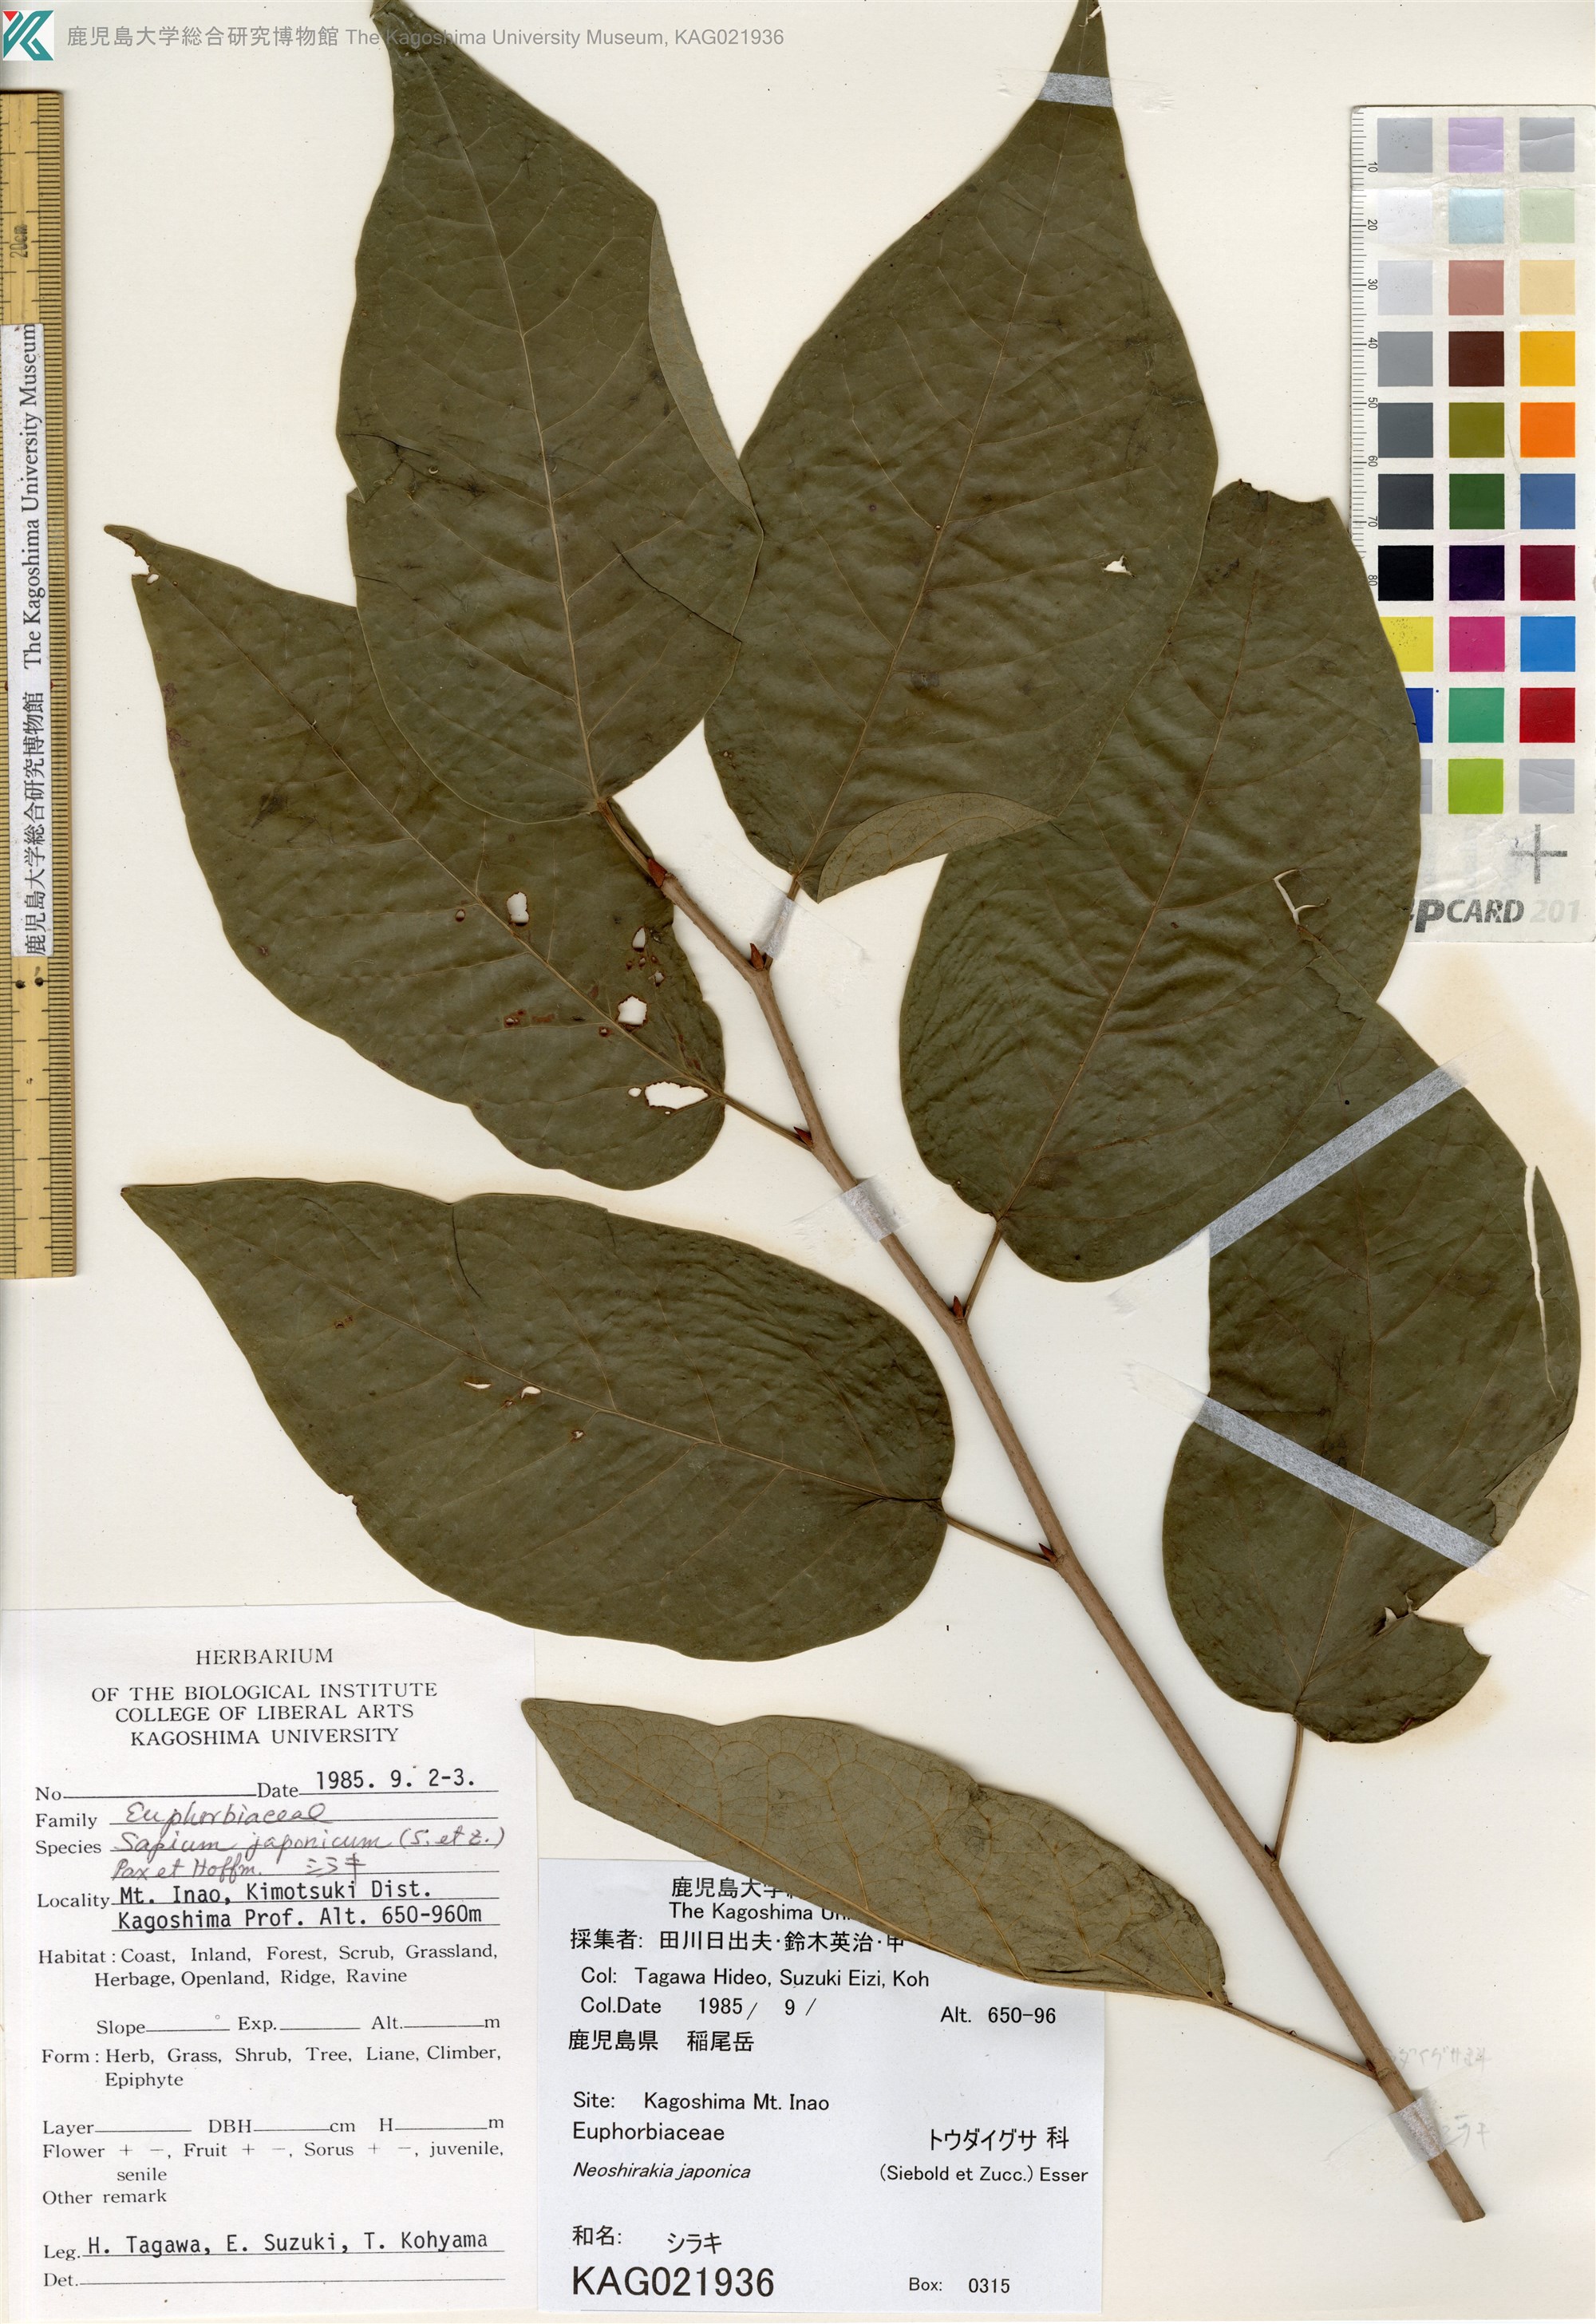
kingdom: Plantae
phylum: Tracheophyta
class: Magnoliopsida
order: Malpighiales
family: Euphorbiaceae
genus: Neoshirakia
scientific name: Neoshirakia japonica
